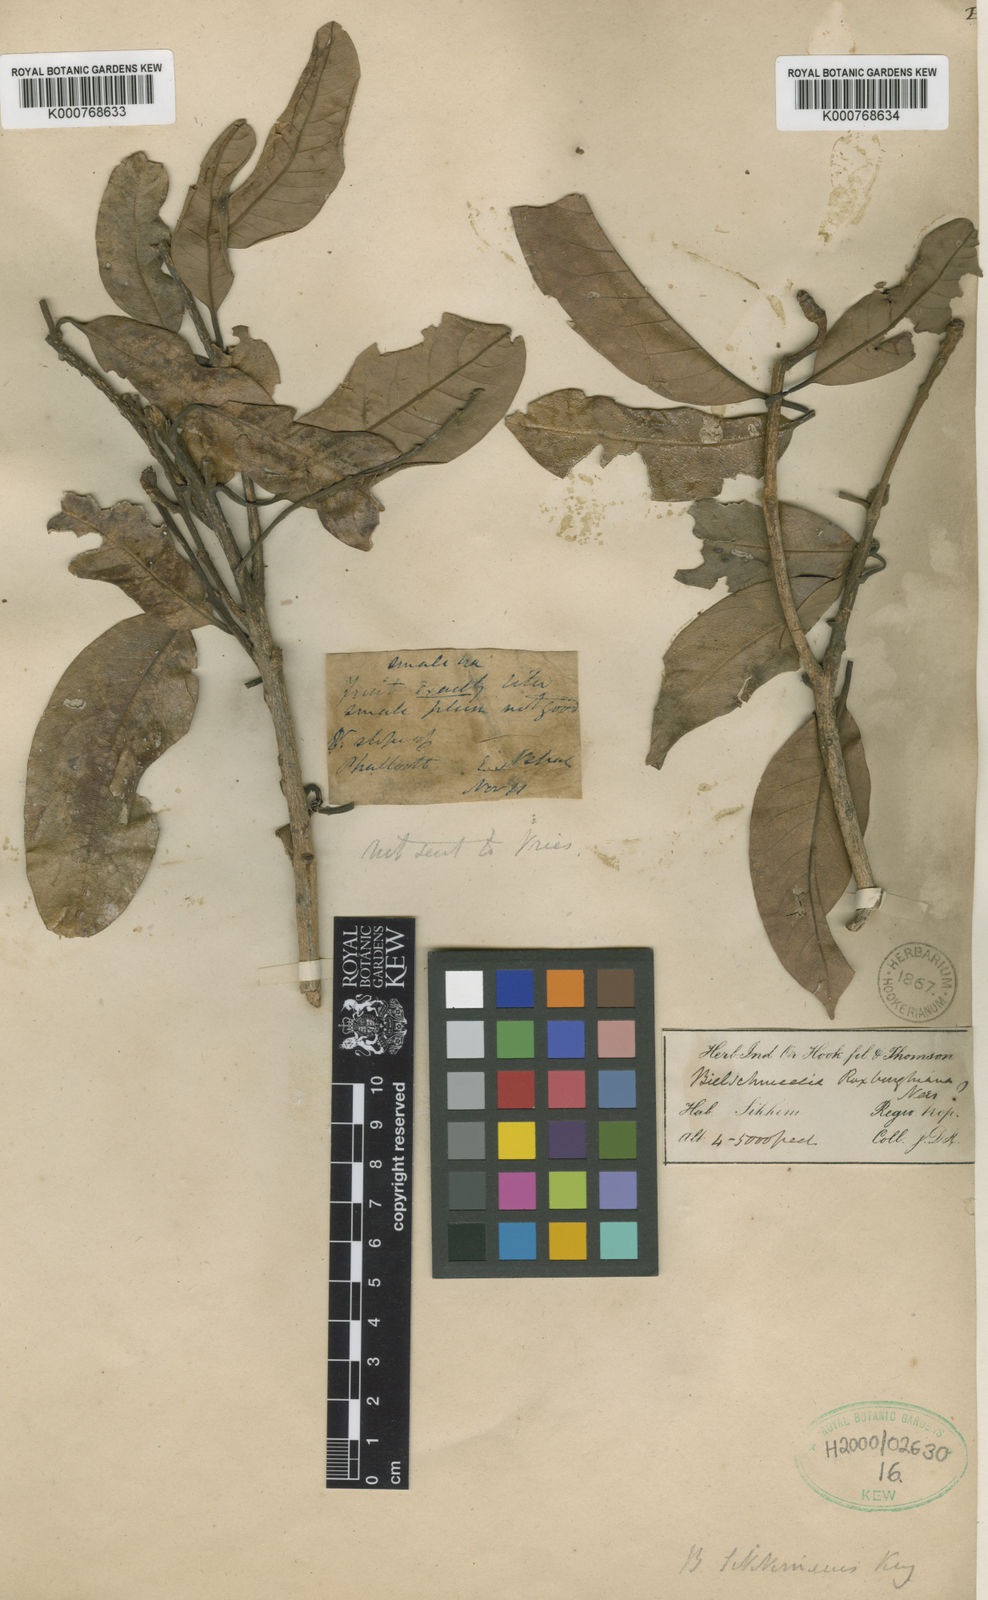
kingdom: Plantae
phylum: Tracheophyta
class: Magnoliopsida
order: Laurales
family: Lauraceae
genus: Beilschmiedia
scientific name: Beilschmiedia sikkimensis
